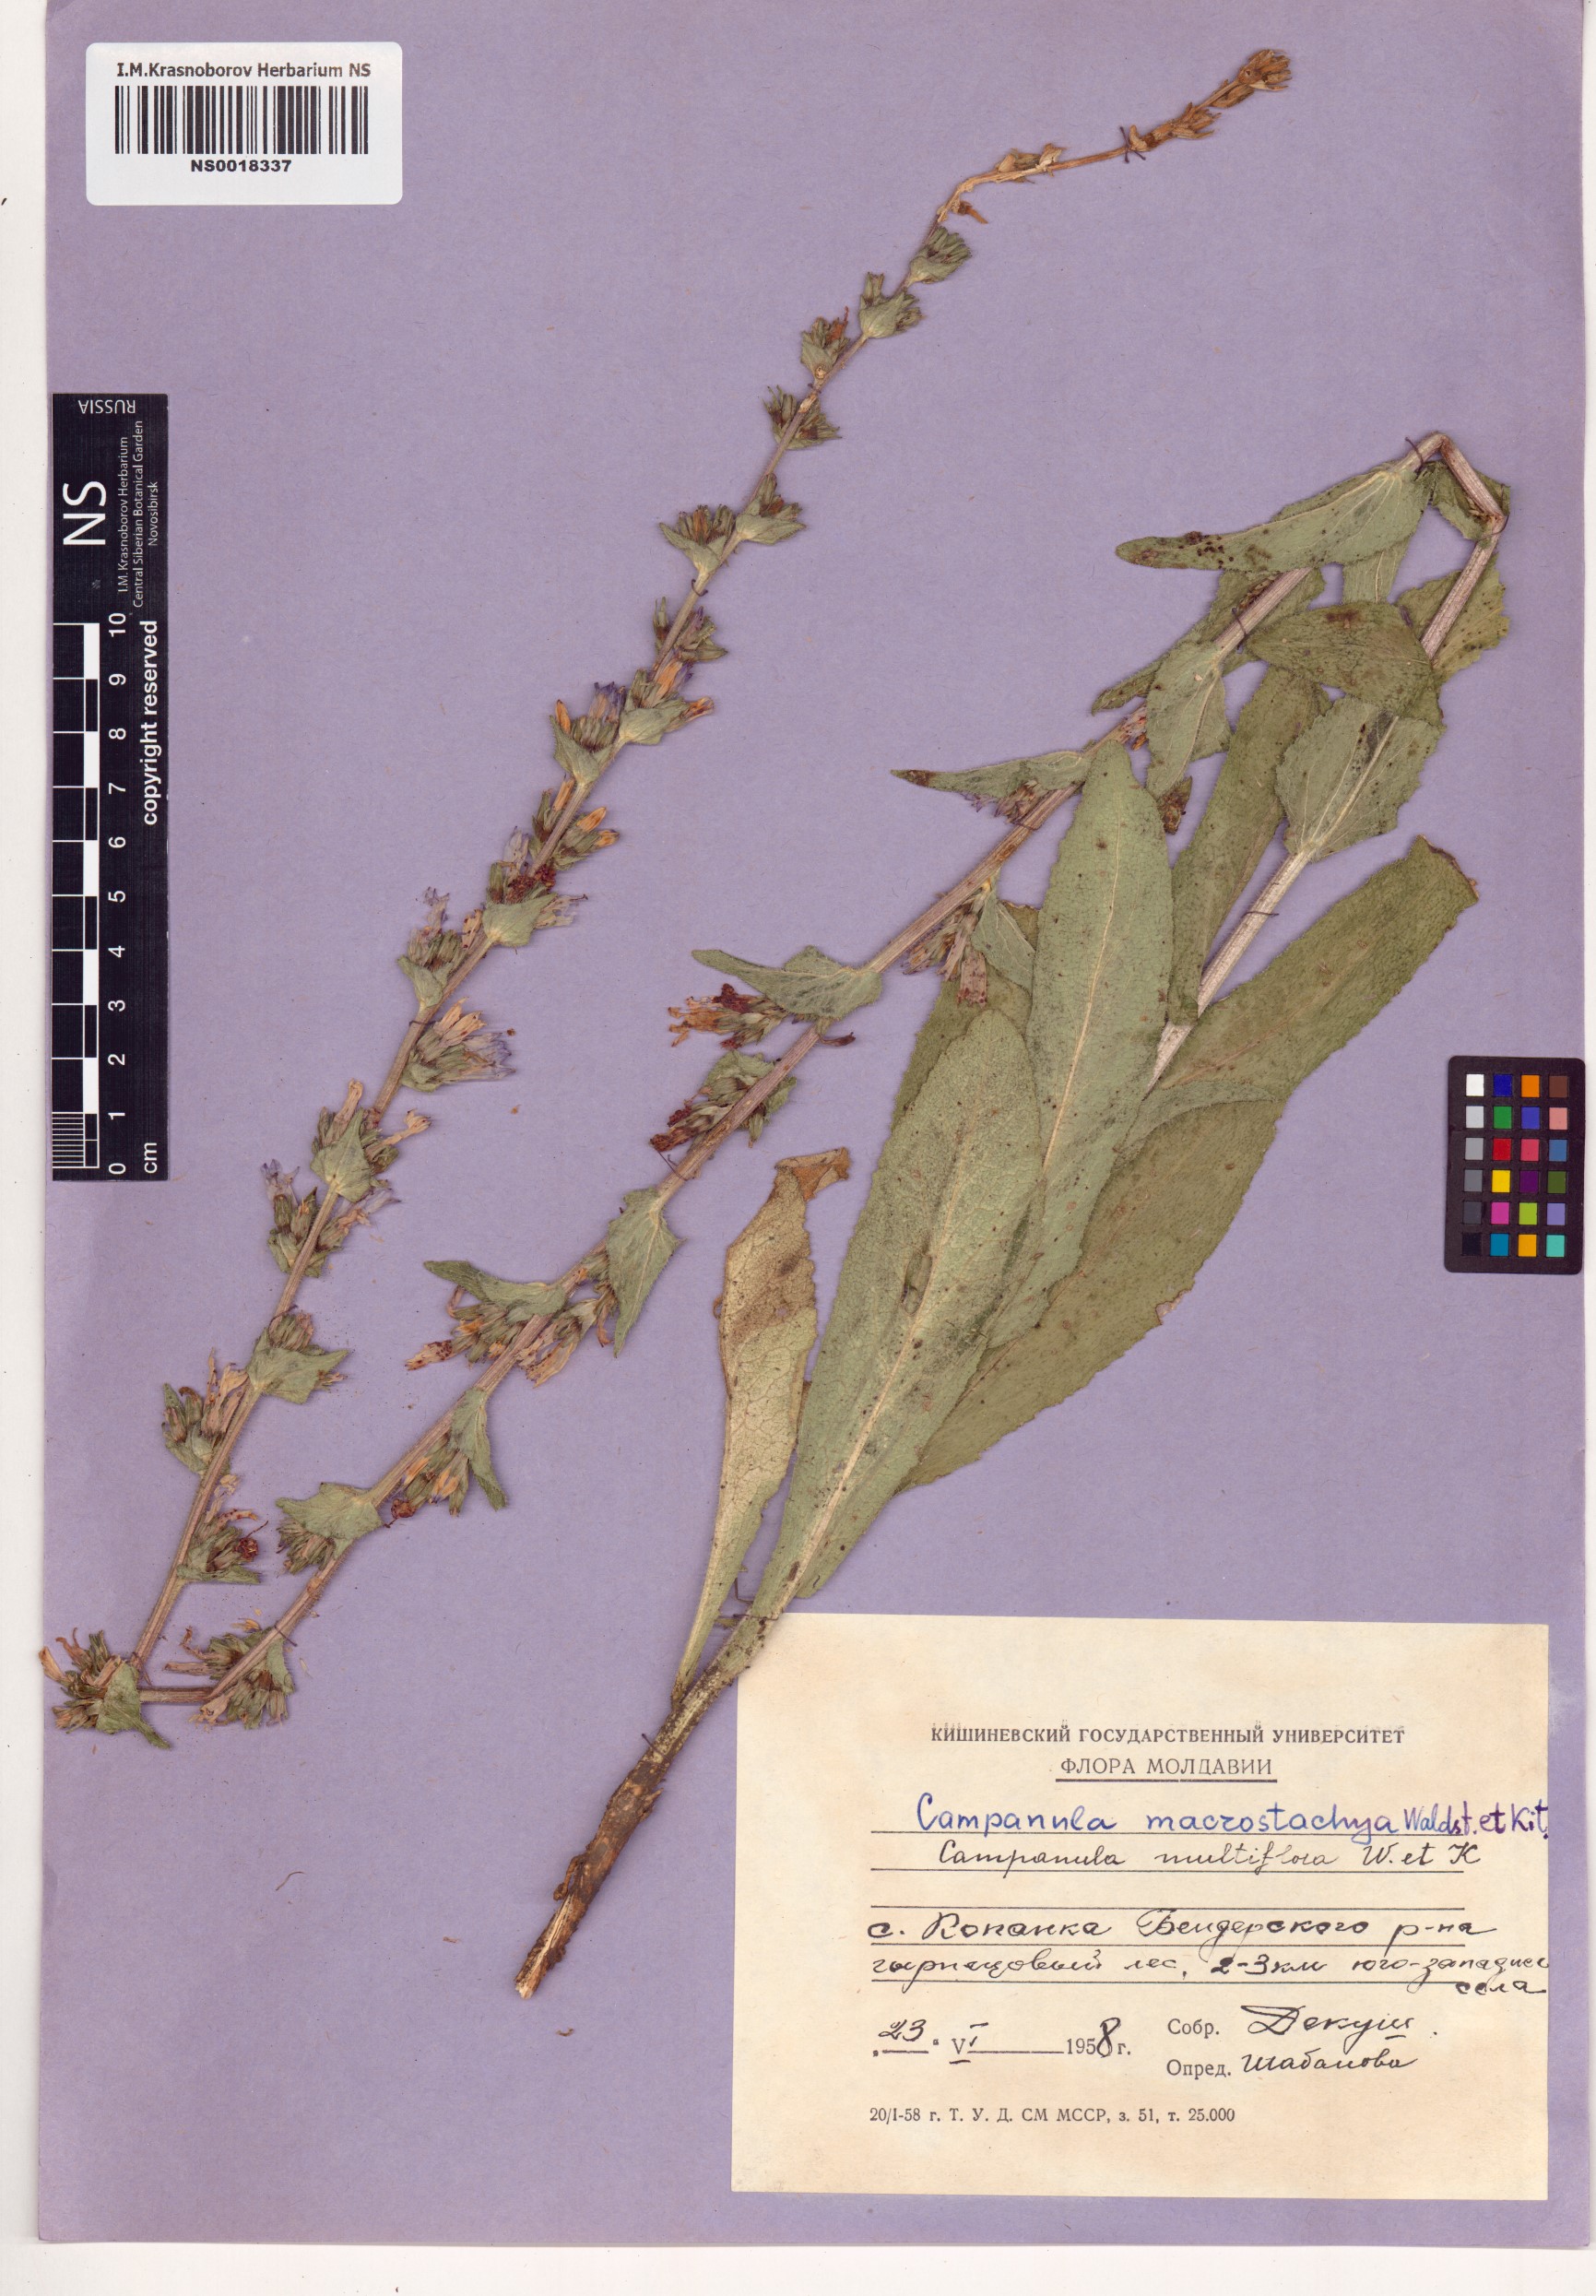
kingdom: Plantae
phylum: Tracheophyta
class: Magnoliopsida
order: Asterales
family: Campanulaceae
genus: Campanula
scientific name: Campanula macrostachya
